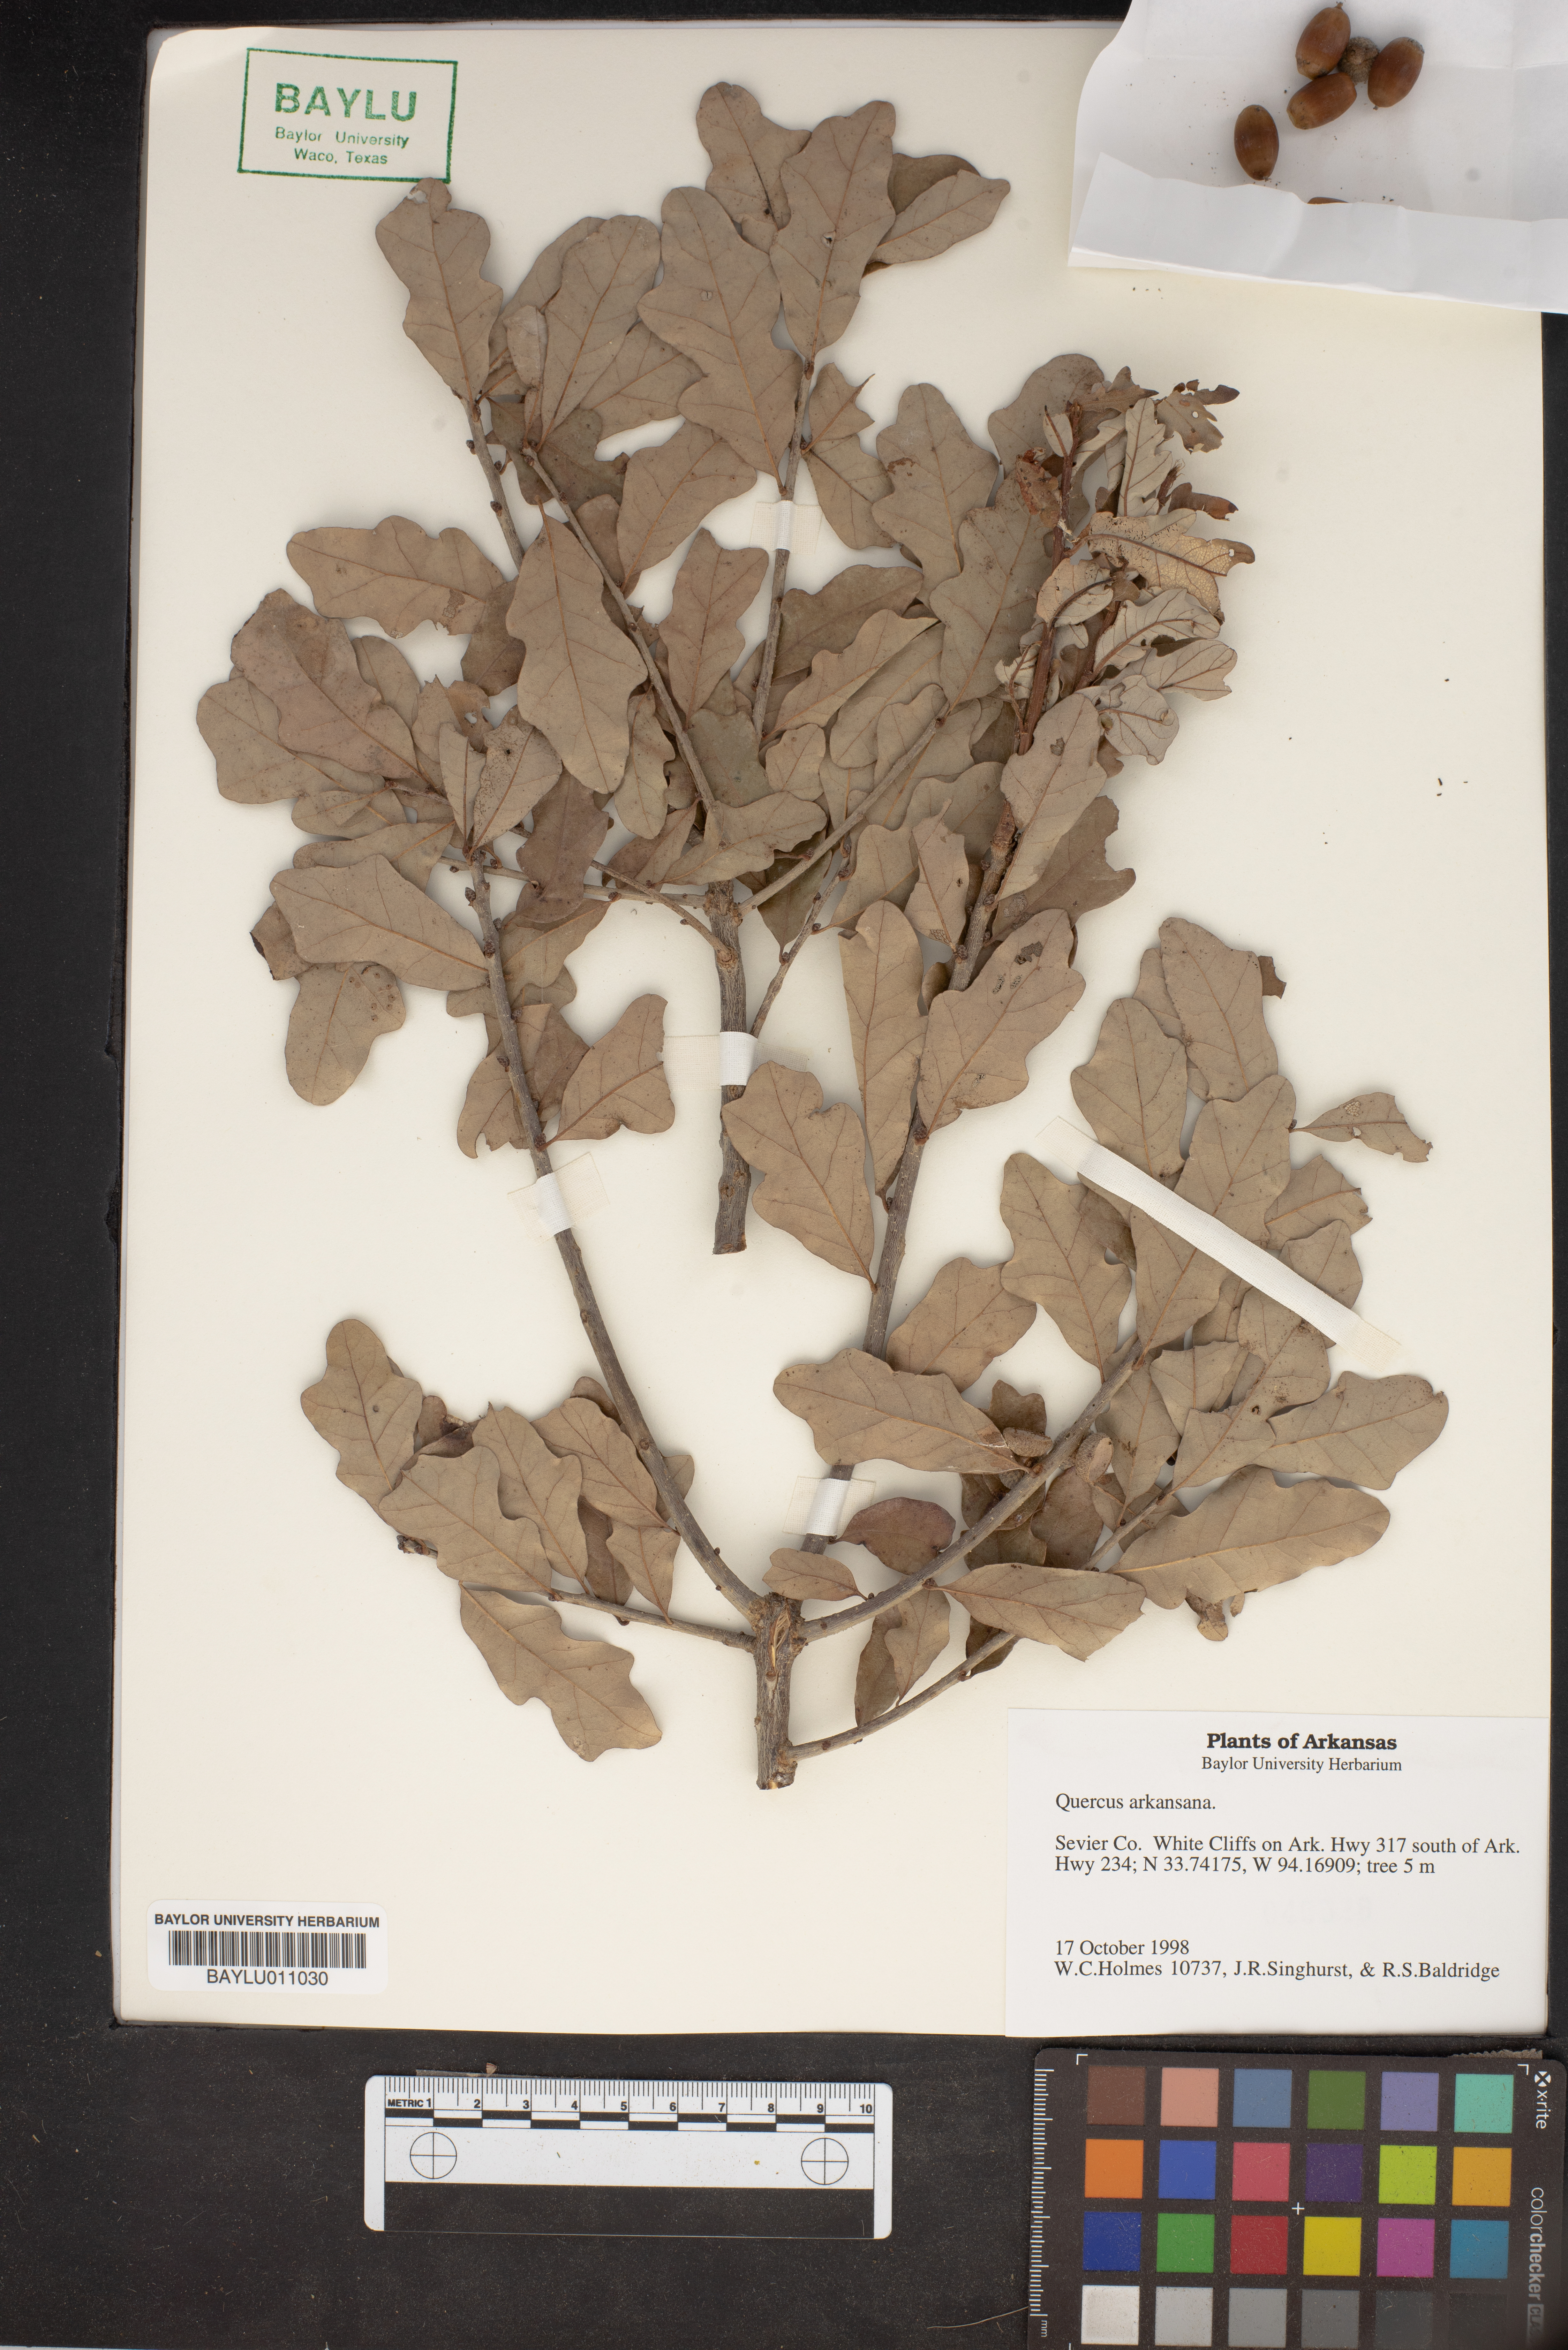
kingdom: Plantae
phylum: Tracheophyta
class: Magnoliopsida
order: Fagales
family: Fagaceae
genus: Quercus
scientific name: Quercus arkansana
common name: Arkansas oak
